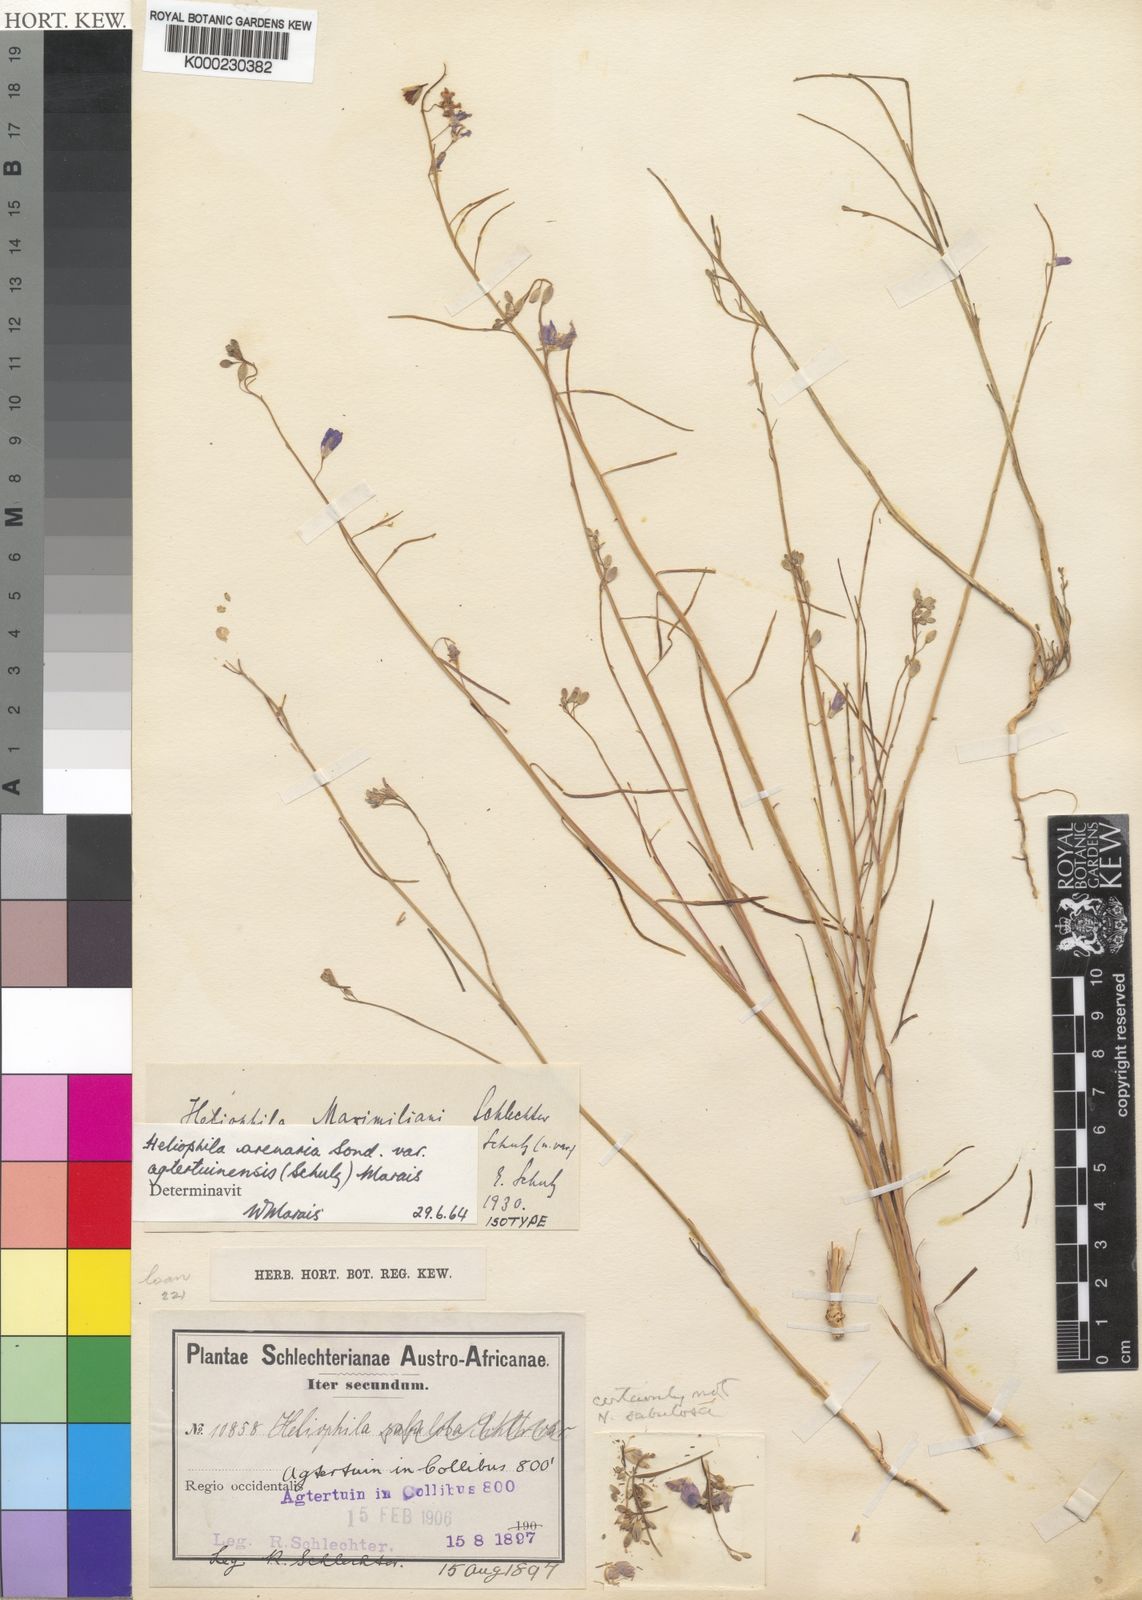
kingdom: Plantae
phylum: Tracheophyta
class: Magnoliopsida
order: Brassicales
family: Brassicaceae
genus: Heliophila
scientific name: Heliophila
